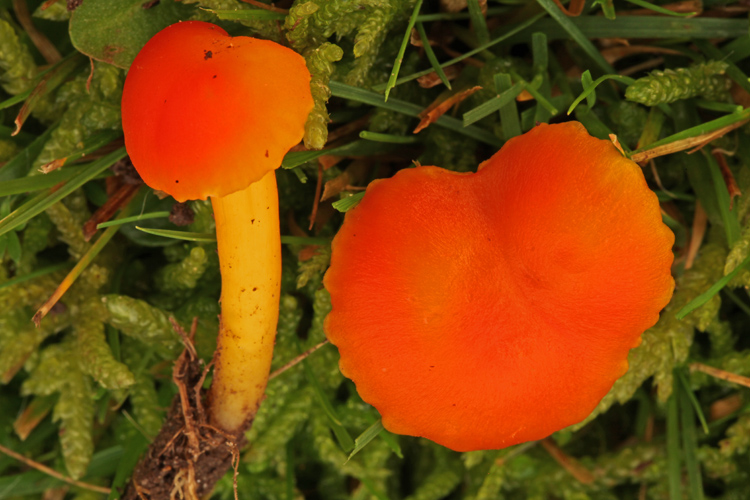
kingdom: Fungi
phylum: Basidiomycota
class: Agaricomycetes
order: Agaricales
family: Hygrophoraceae
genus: Hygrocybe
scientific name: Hygrocybe miniata
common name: mønje-vokshat
